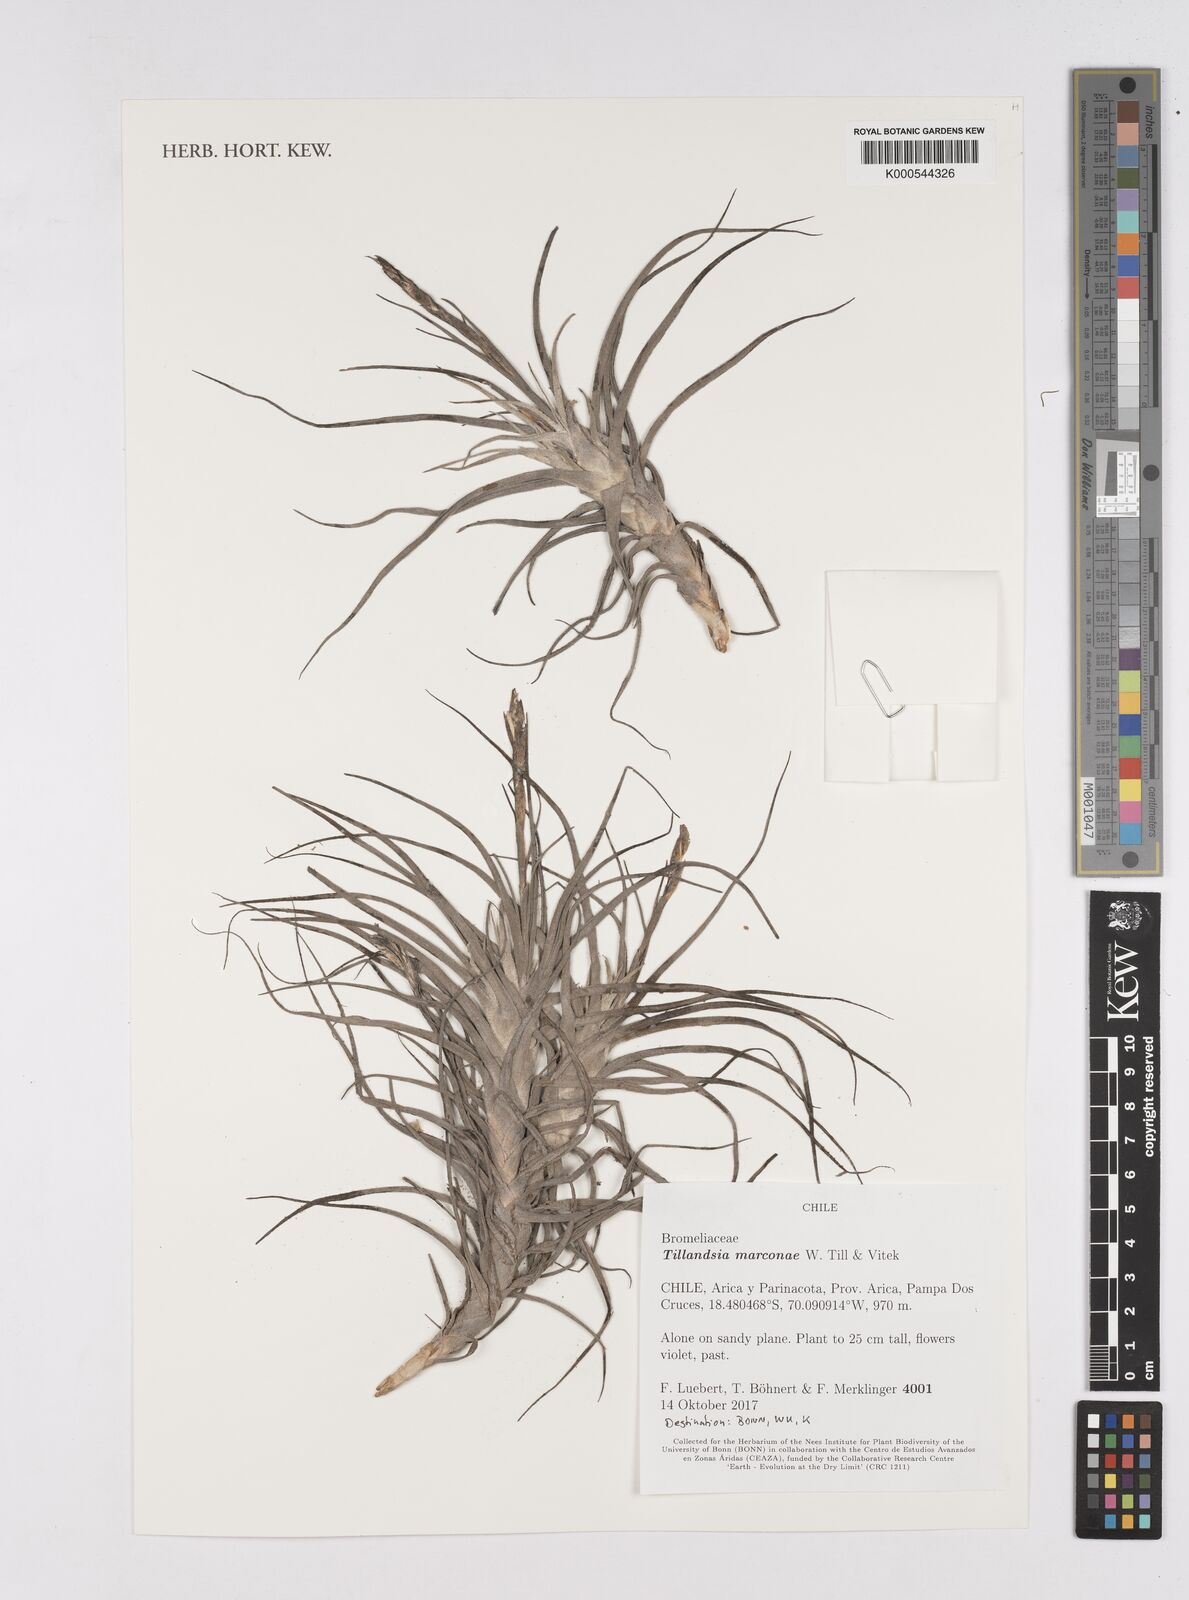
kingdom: Plantae
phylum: Tracheophyta
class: Liliopsida
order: Poales
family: Bromeliaceae
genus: Tillandsia
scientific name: Tillandsia marconae
